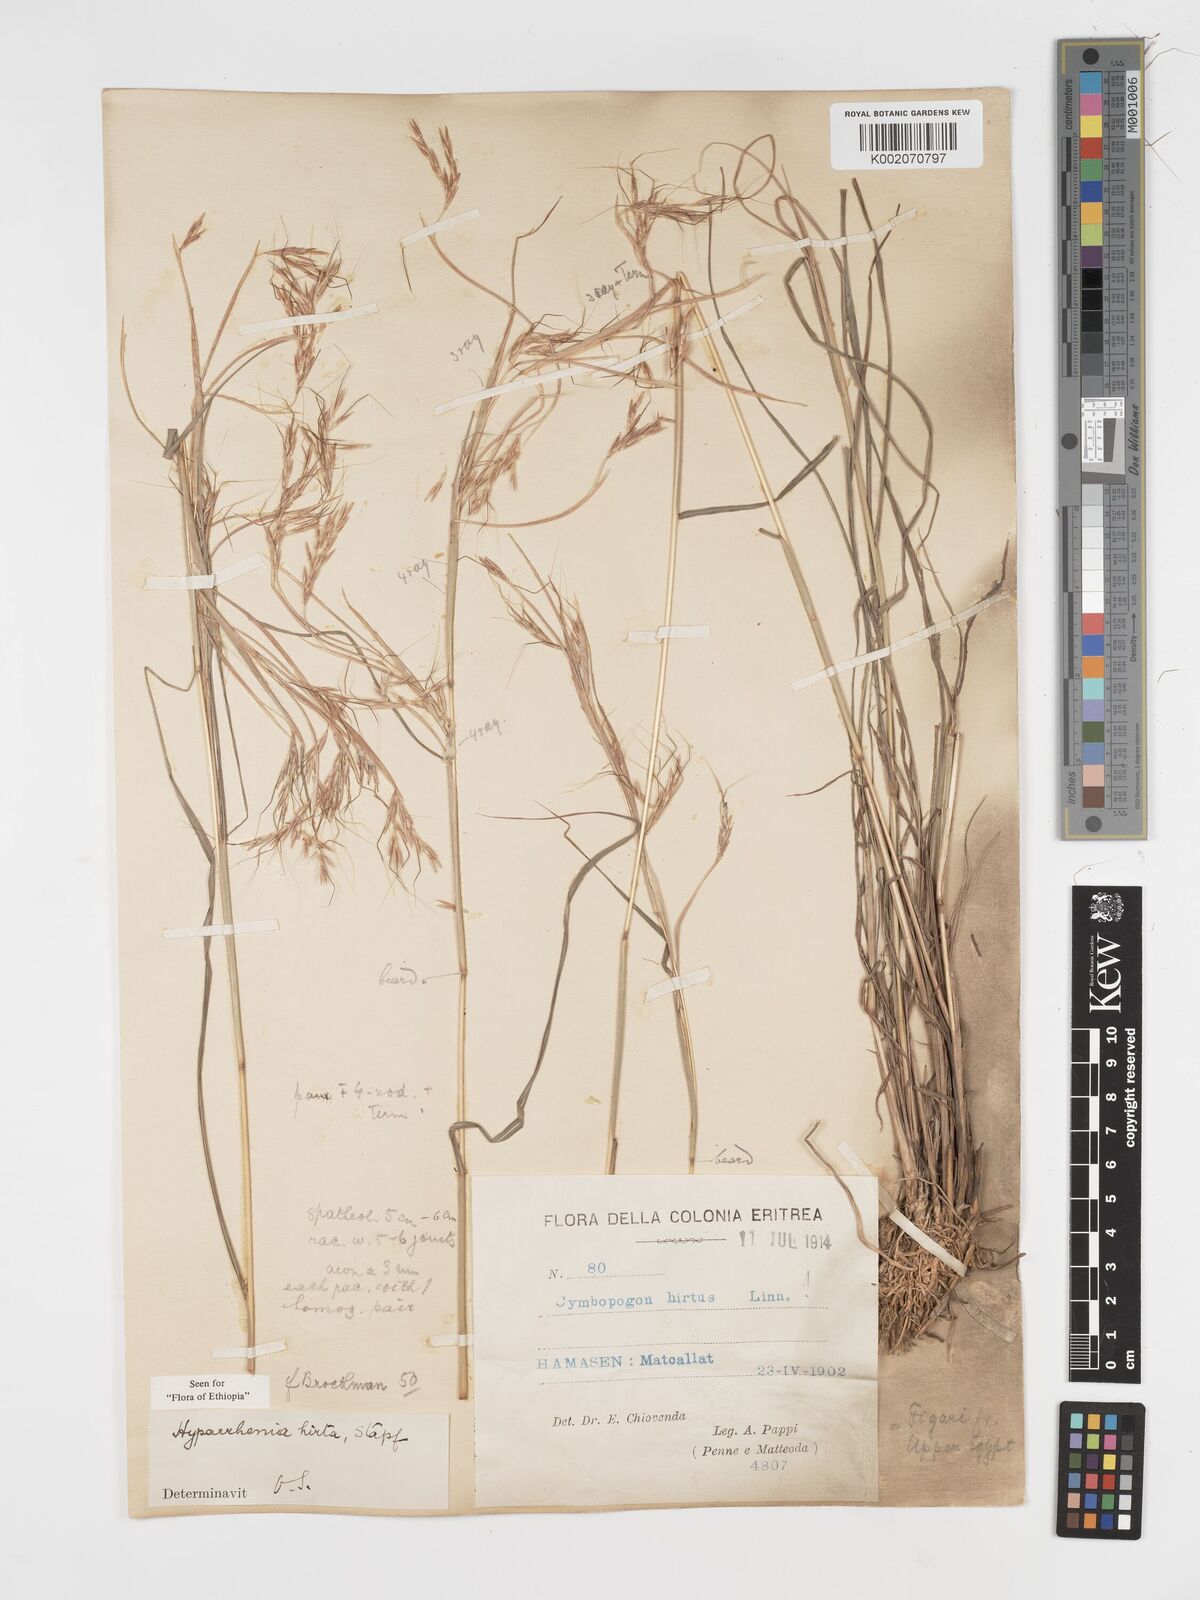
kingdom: Plantae
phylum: Tracheophyta
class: Liliopsida
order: Poales
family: Poaceae
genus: Hyparrhenia
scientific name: Hyparrhenia hirta
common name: Thatching grass
